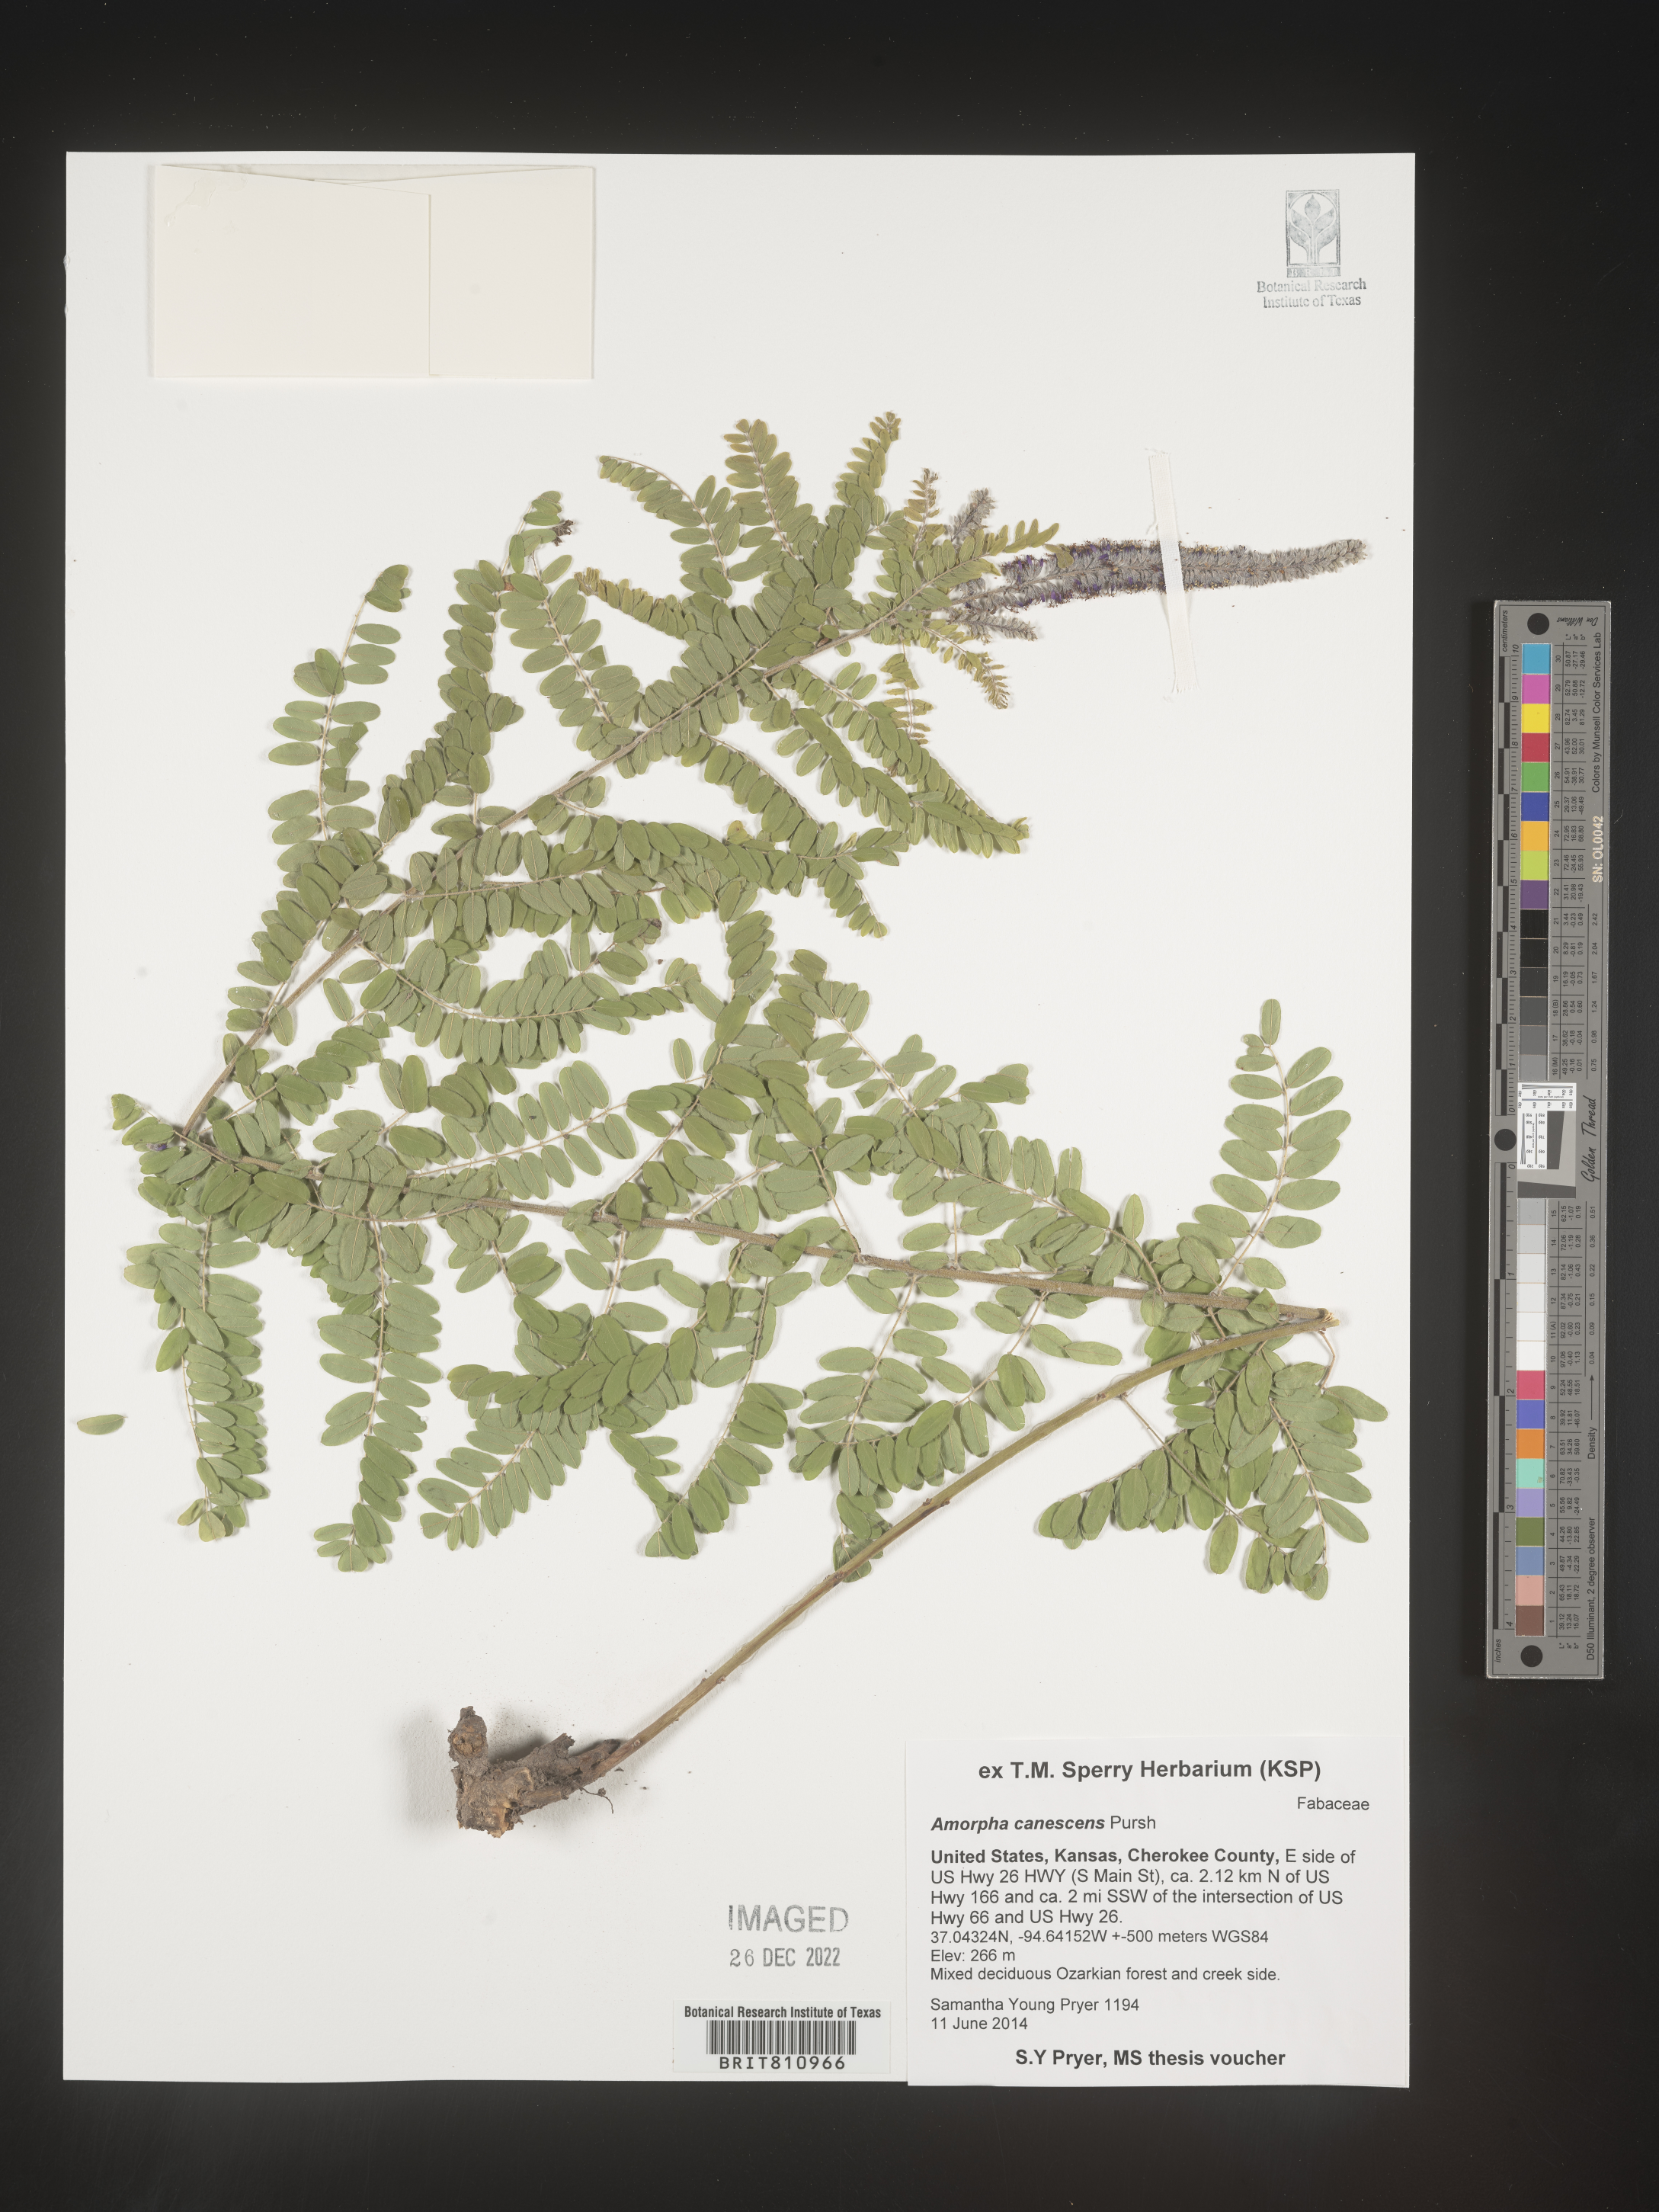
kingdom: Plantae
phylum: Tracheophyta
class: Magnoliopsida
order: Fabales
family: Fabaceae
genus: Amorpha
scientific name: Amorpha canescens
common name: Leadplant
